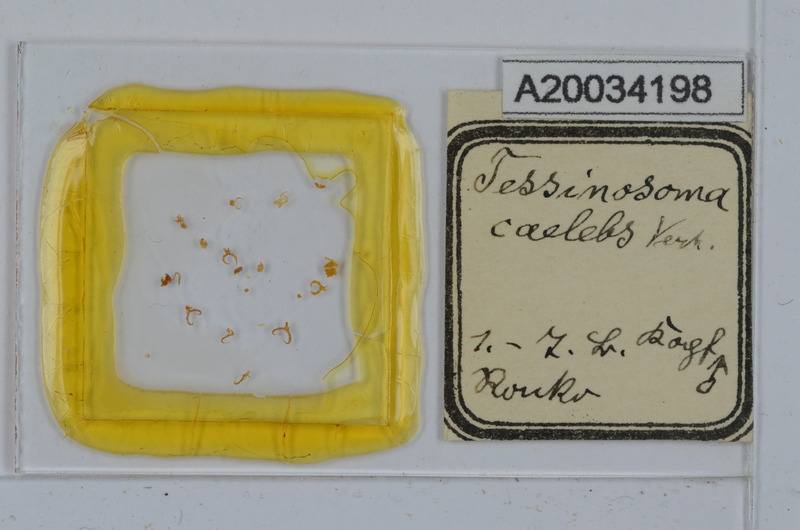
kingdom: Animalia
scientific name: Animalia
